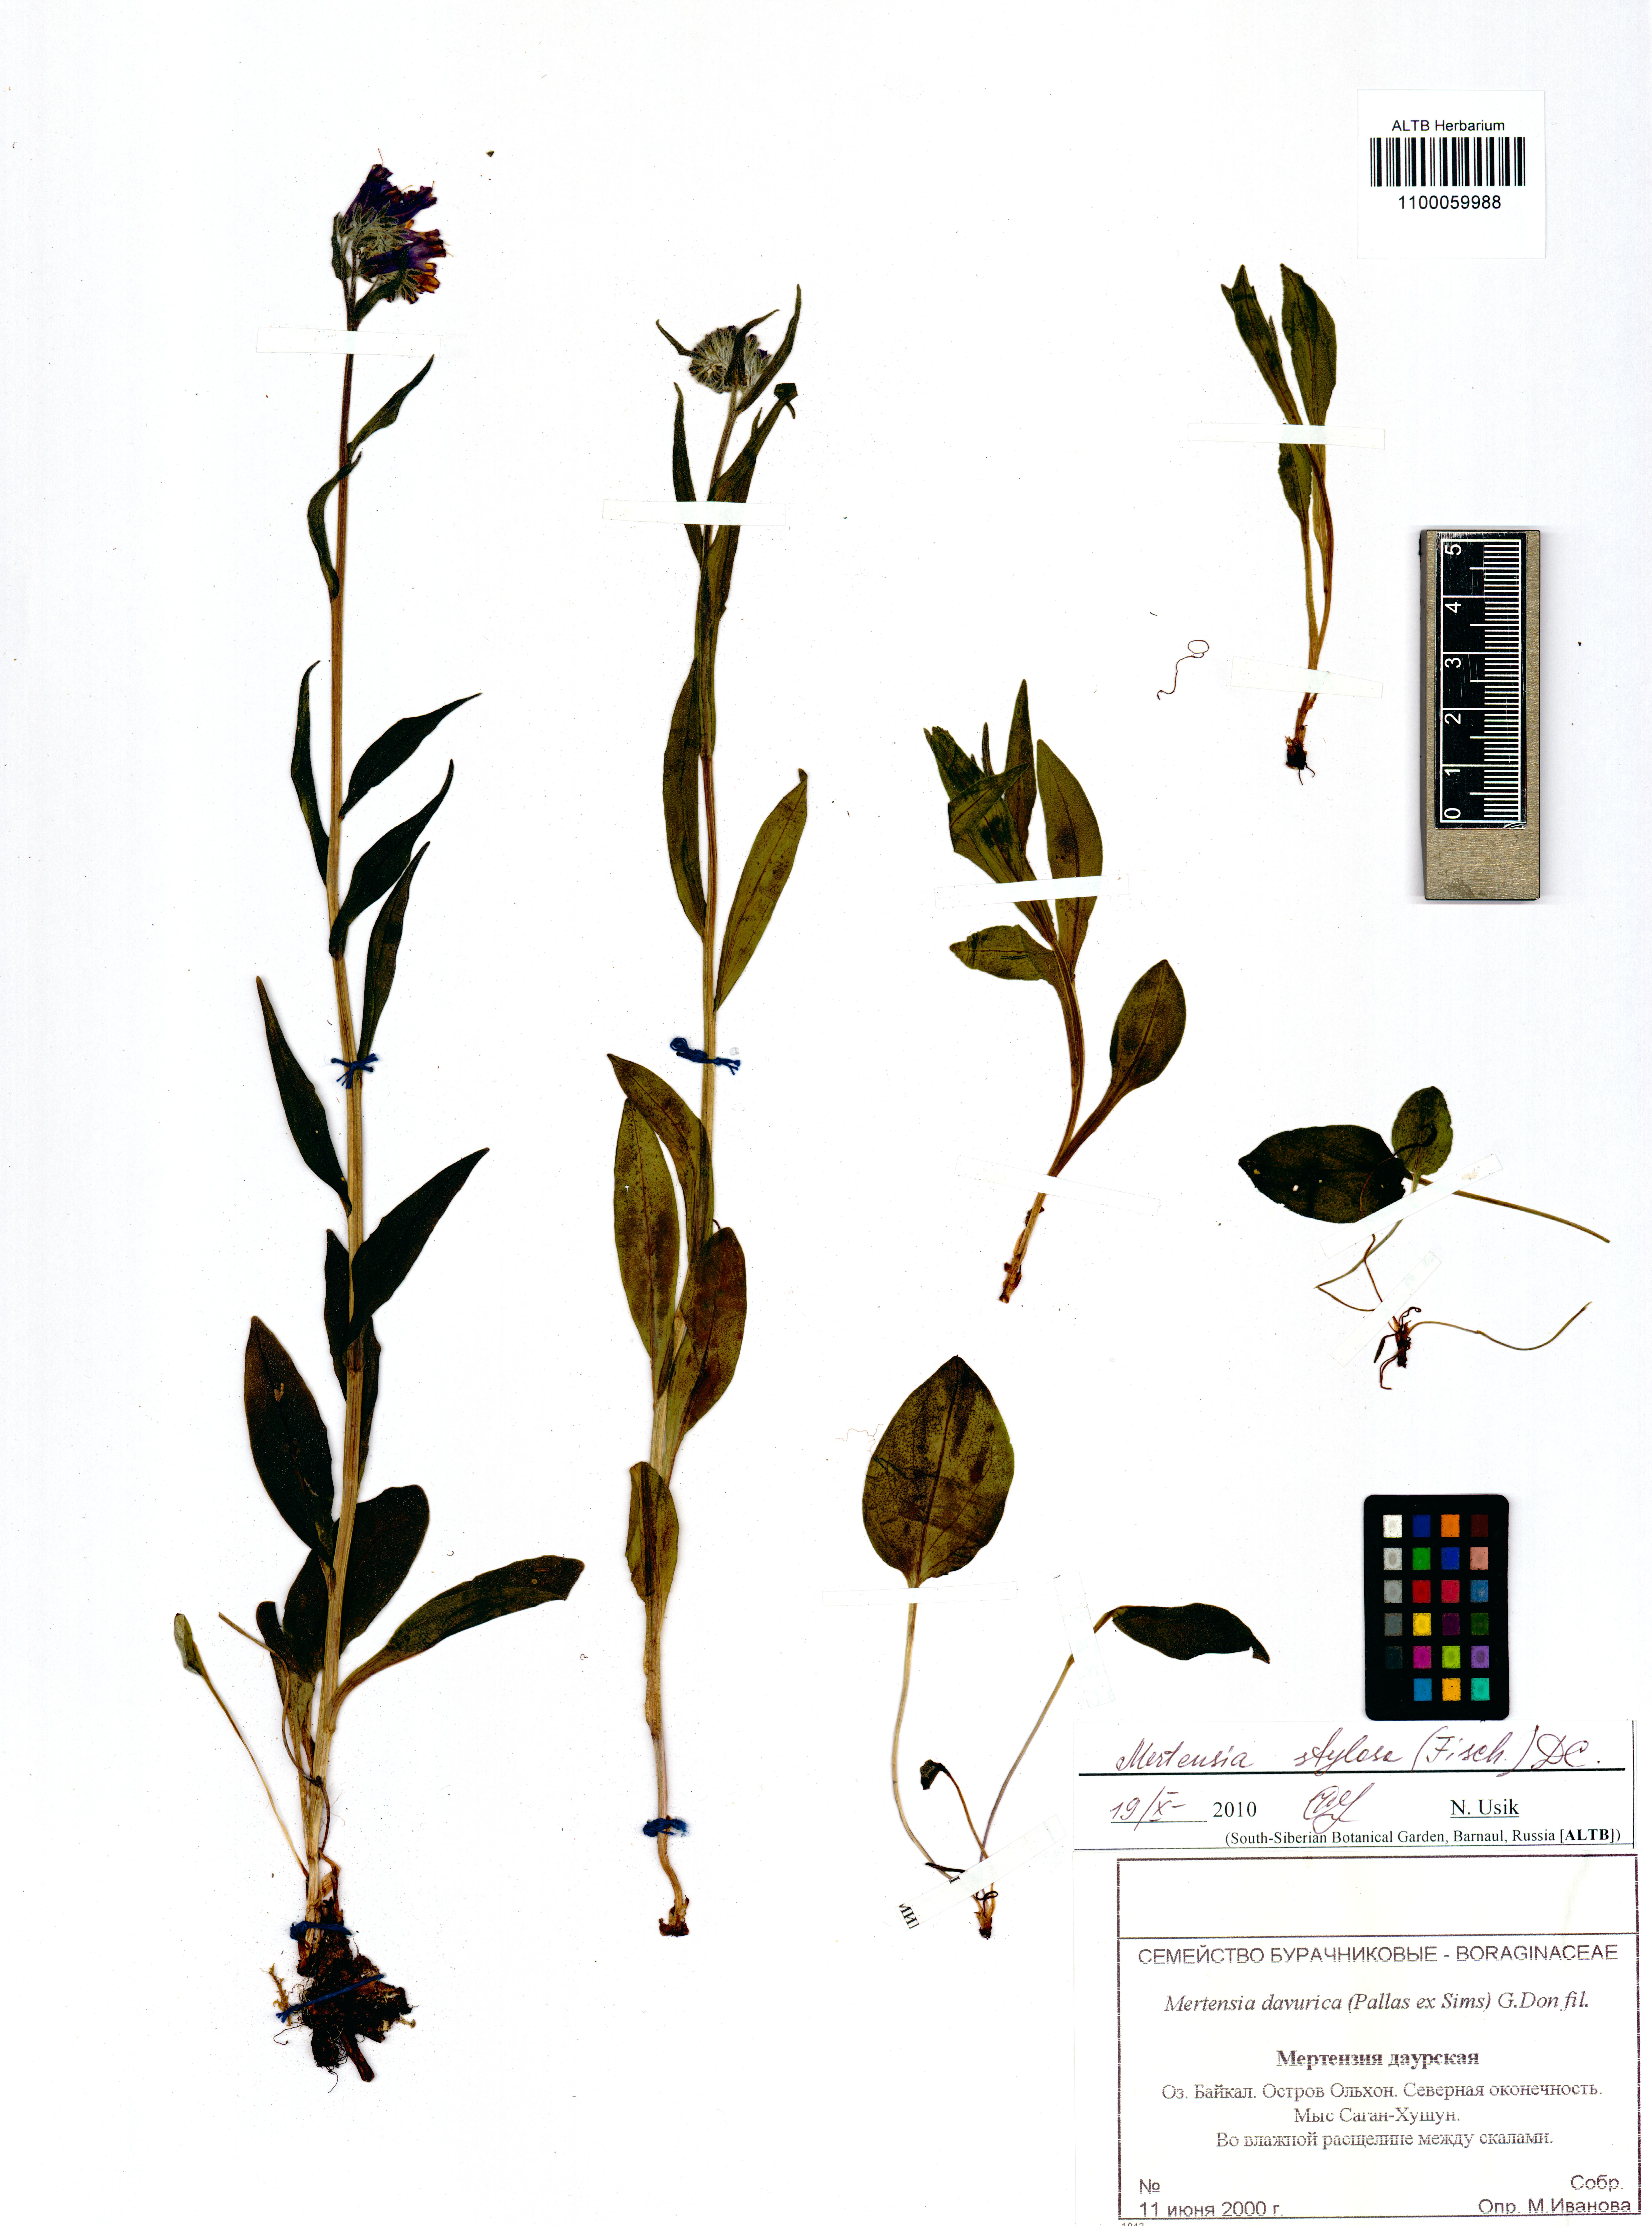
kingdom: Plantae
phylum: Tracheophyta
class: Magnoliopsida
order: Boraginales
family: Boraginaceae
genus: Mertensia
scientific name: Mertensia stylosa
